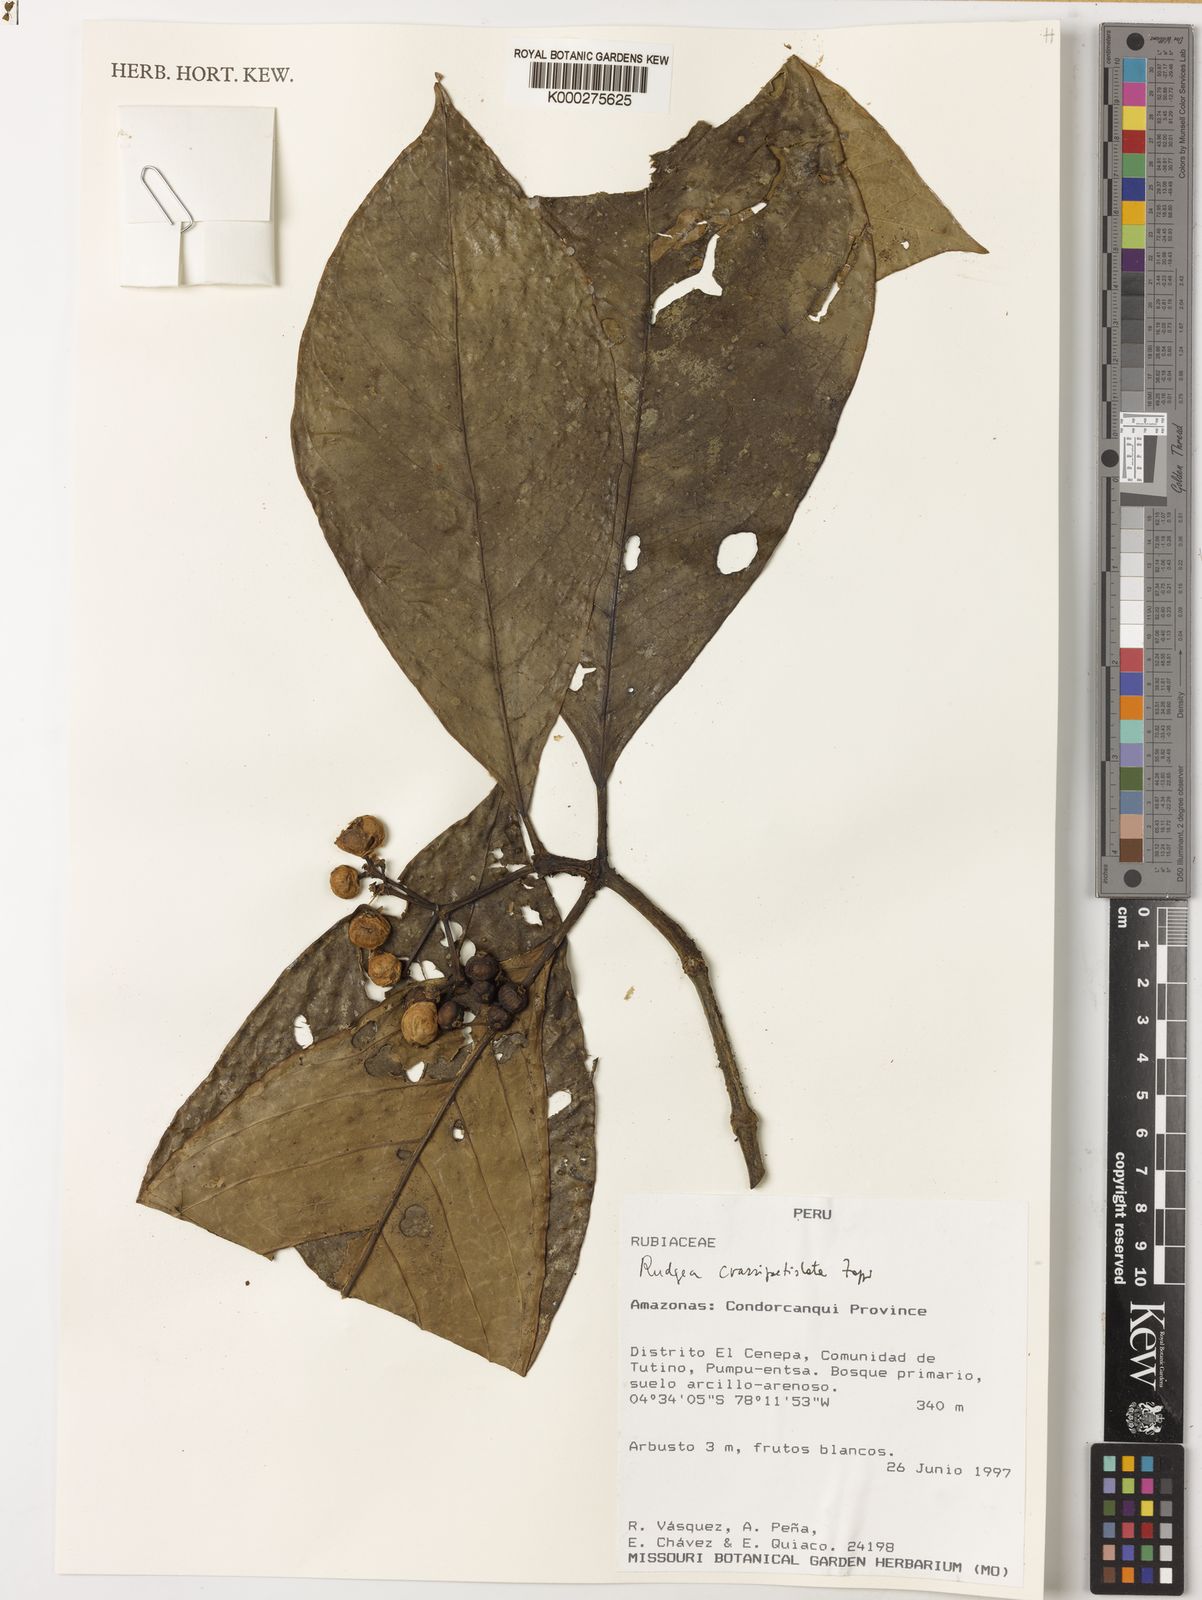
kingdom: Plantae
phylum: Tracheophyta
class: Magnoliopsida
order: Gentianales
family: Rubiaceae
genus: Rudgea
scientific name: Rudgea crassipetiolata
